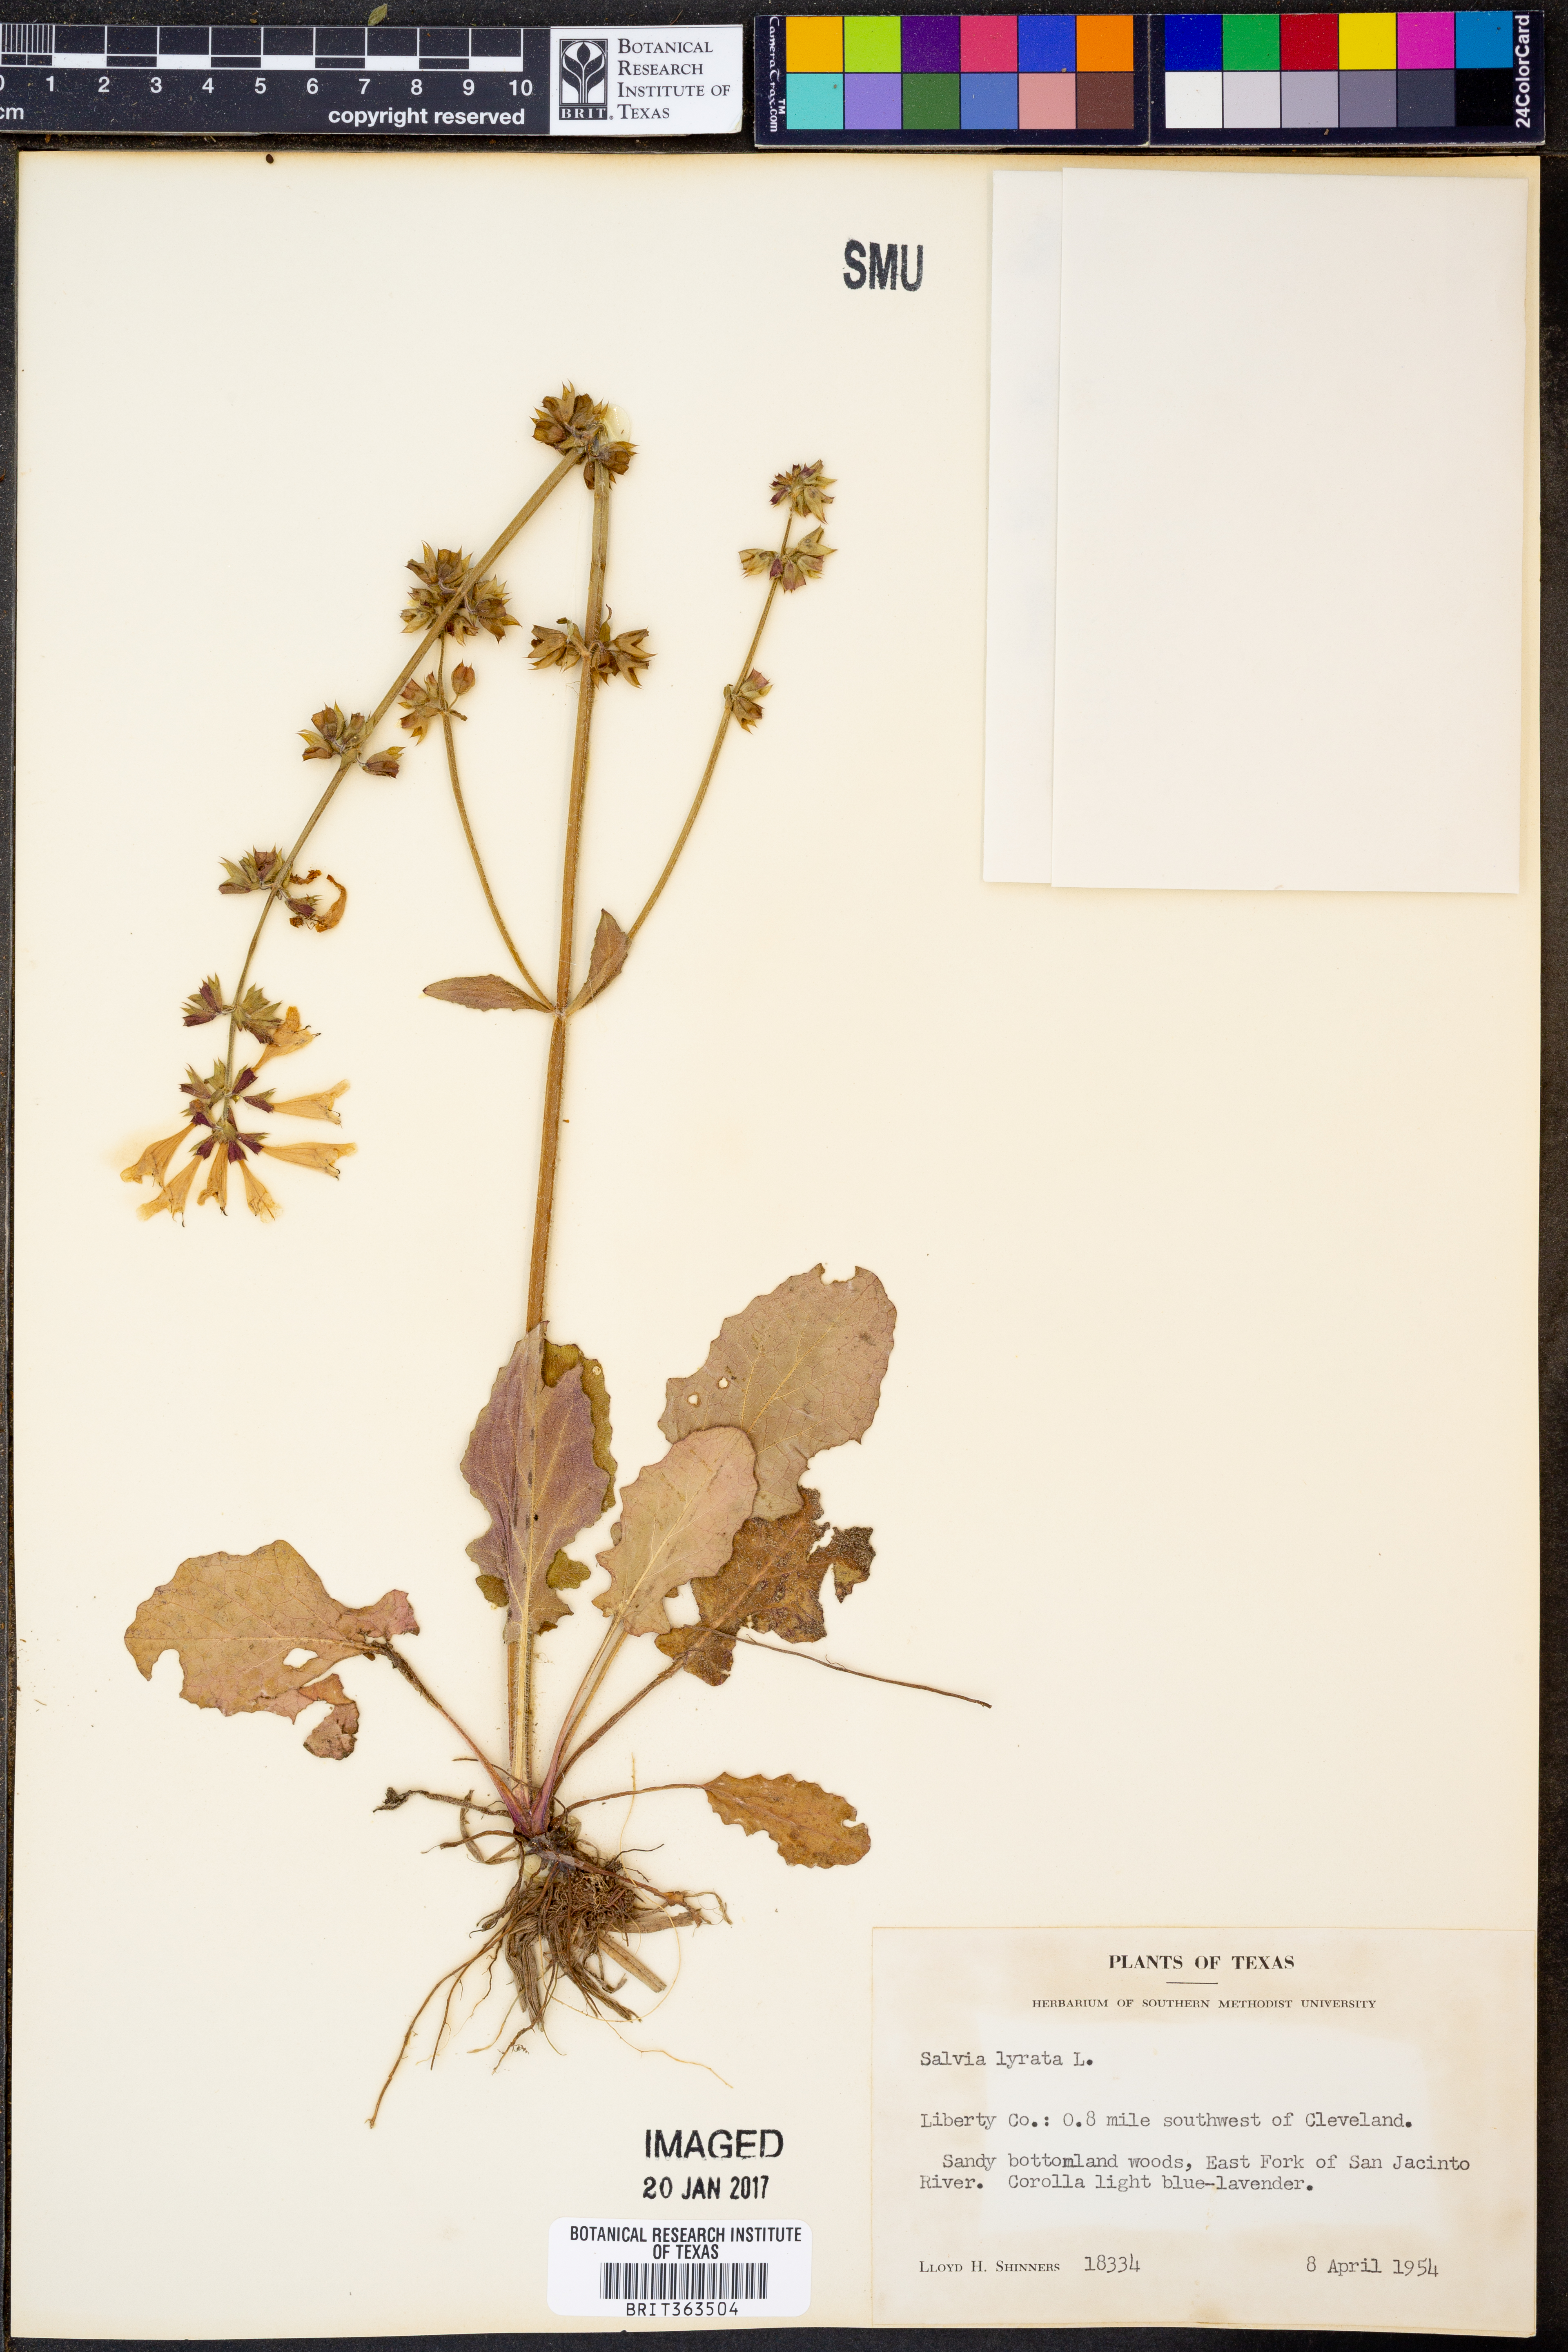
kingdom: Plantae
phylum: Tracheophyta
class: Magnoliopsida
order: Lamiales
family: Lamiaceae
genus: Salvia
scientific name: Salvia lyrata
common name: Cancerweed
